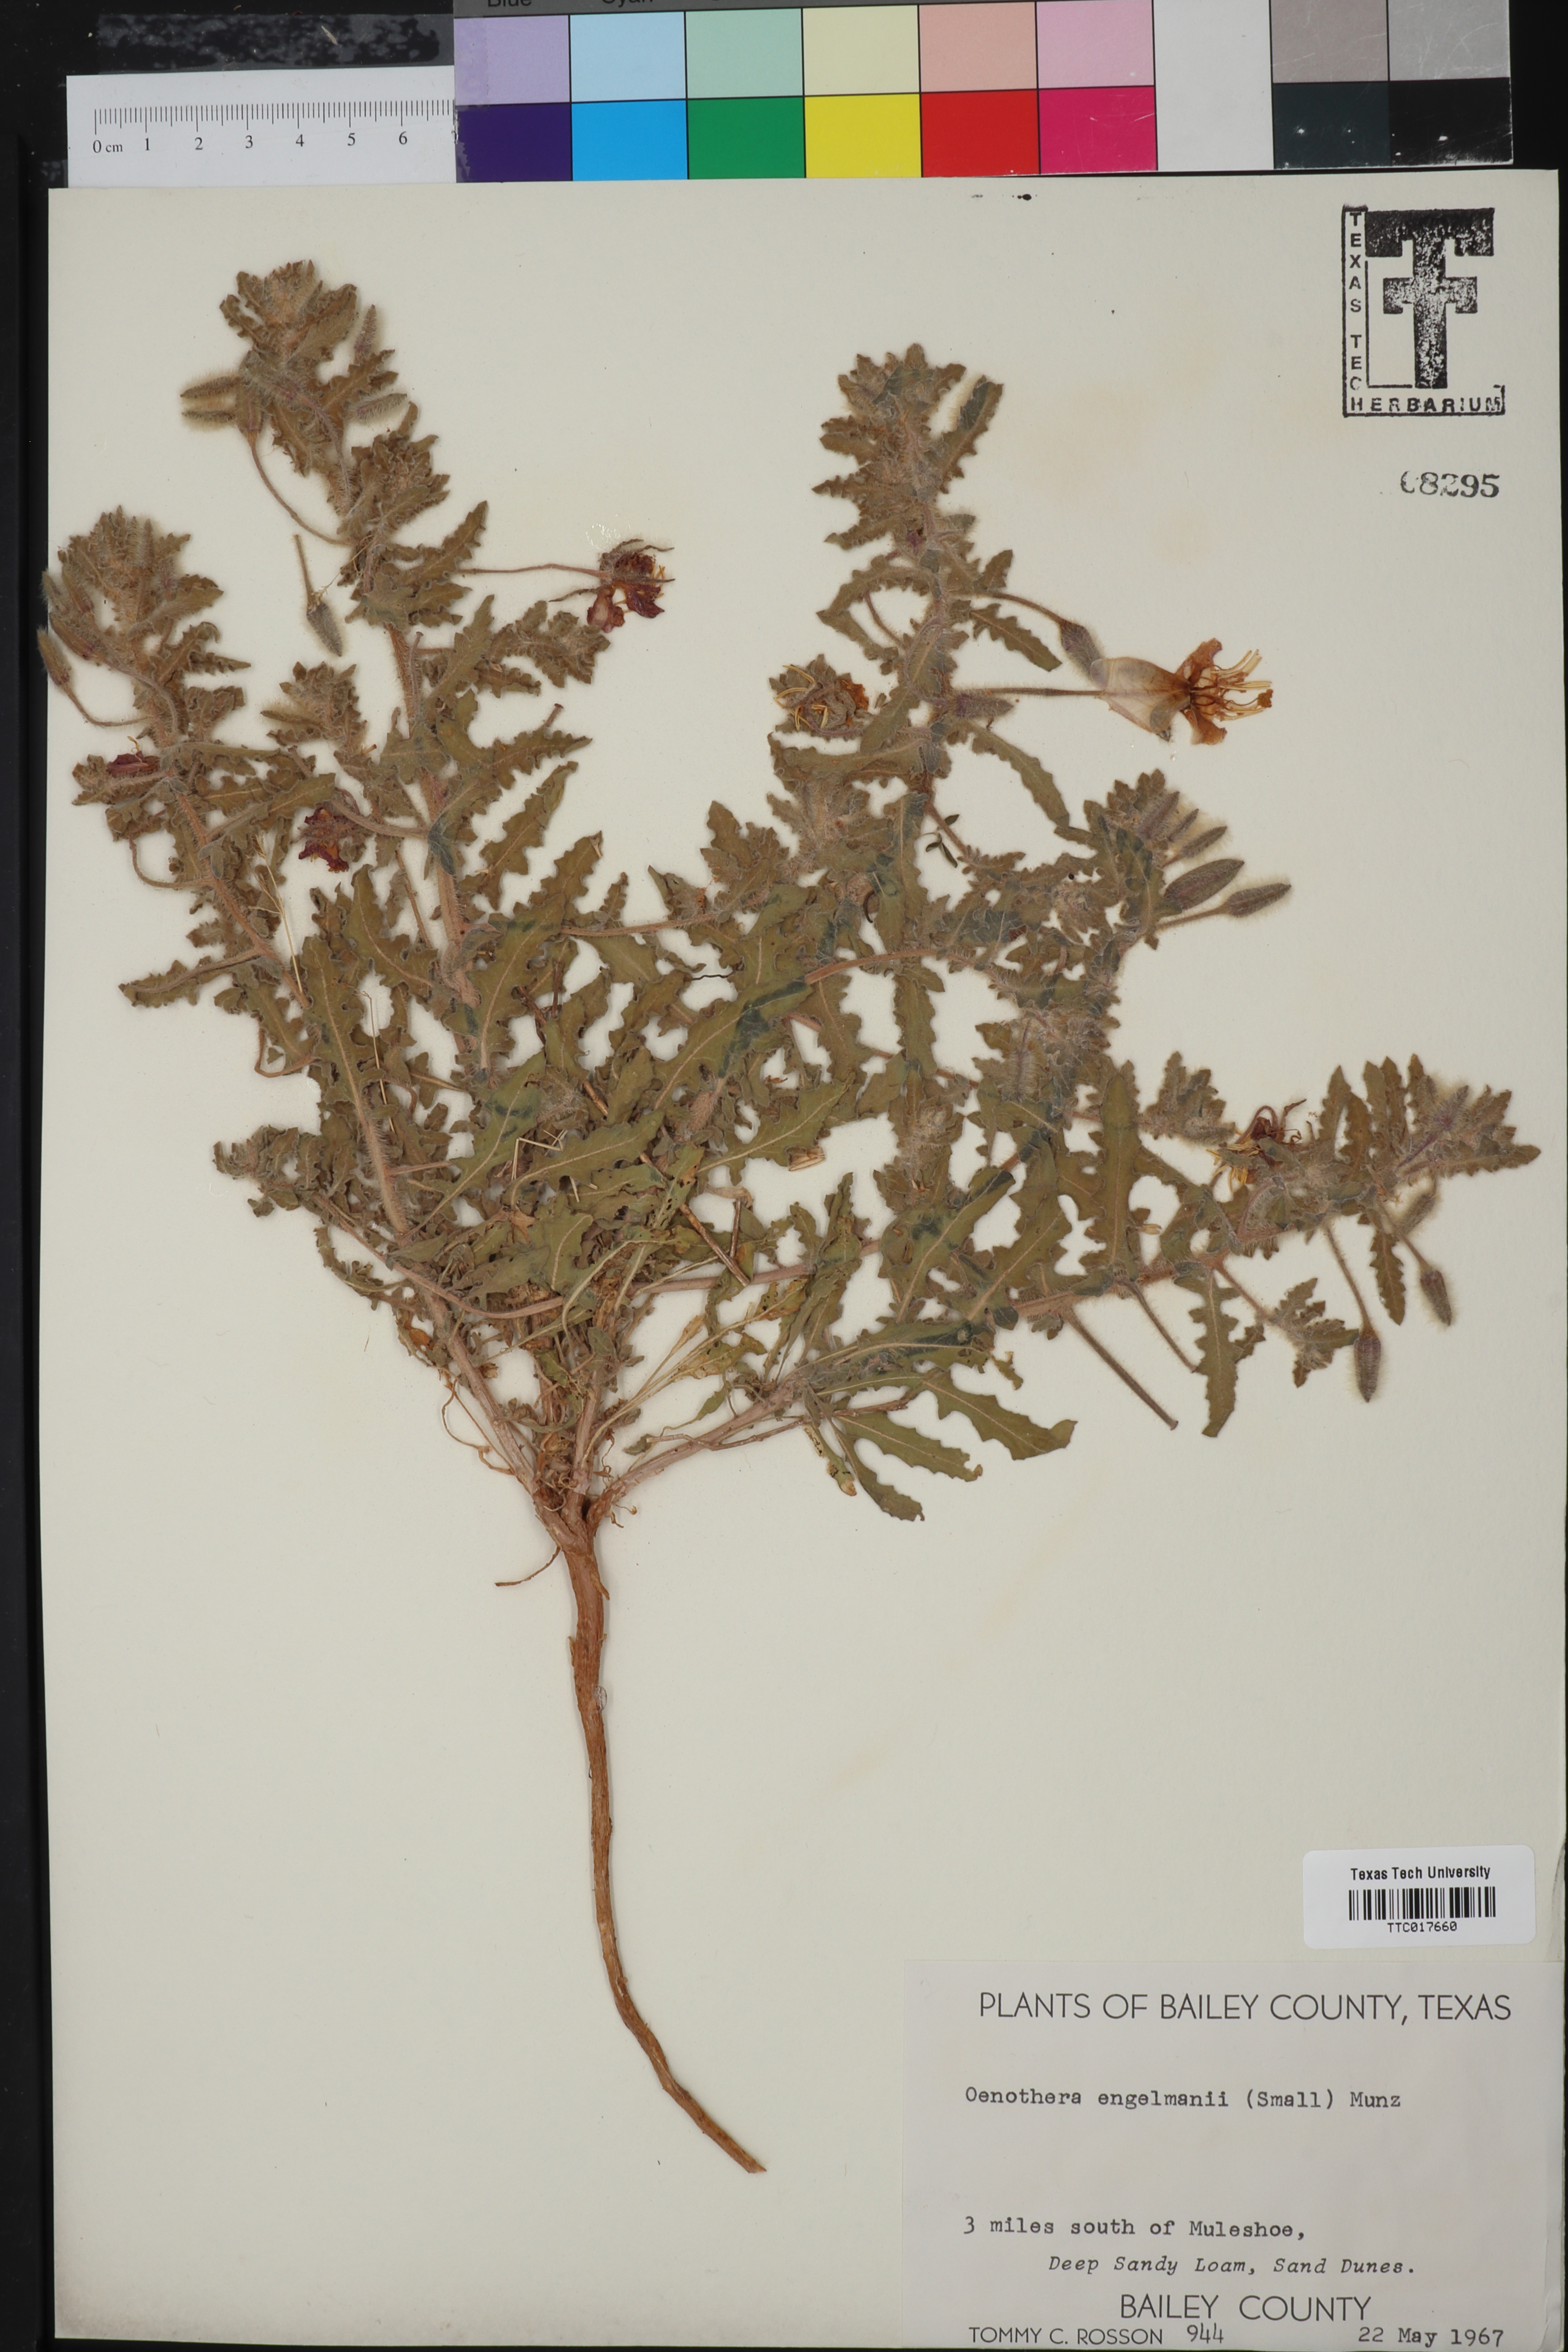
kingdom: Plantae
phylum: Tracheophyta
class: Magnoliopsida
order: Myrtales
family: Onagraceae
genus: Oenothera
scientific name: Oenothera engelmannii
